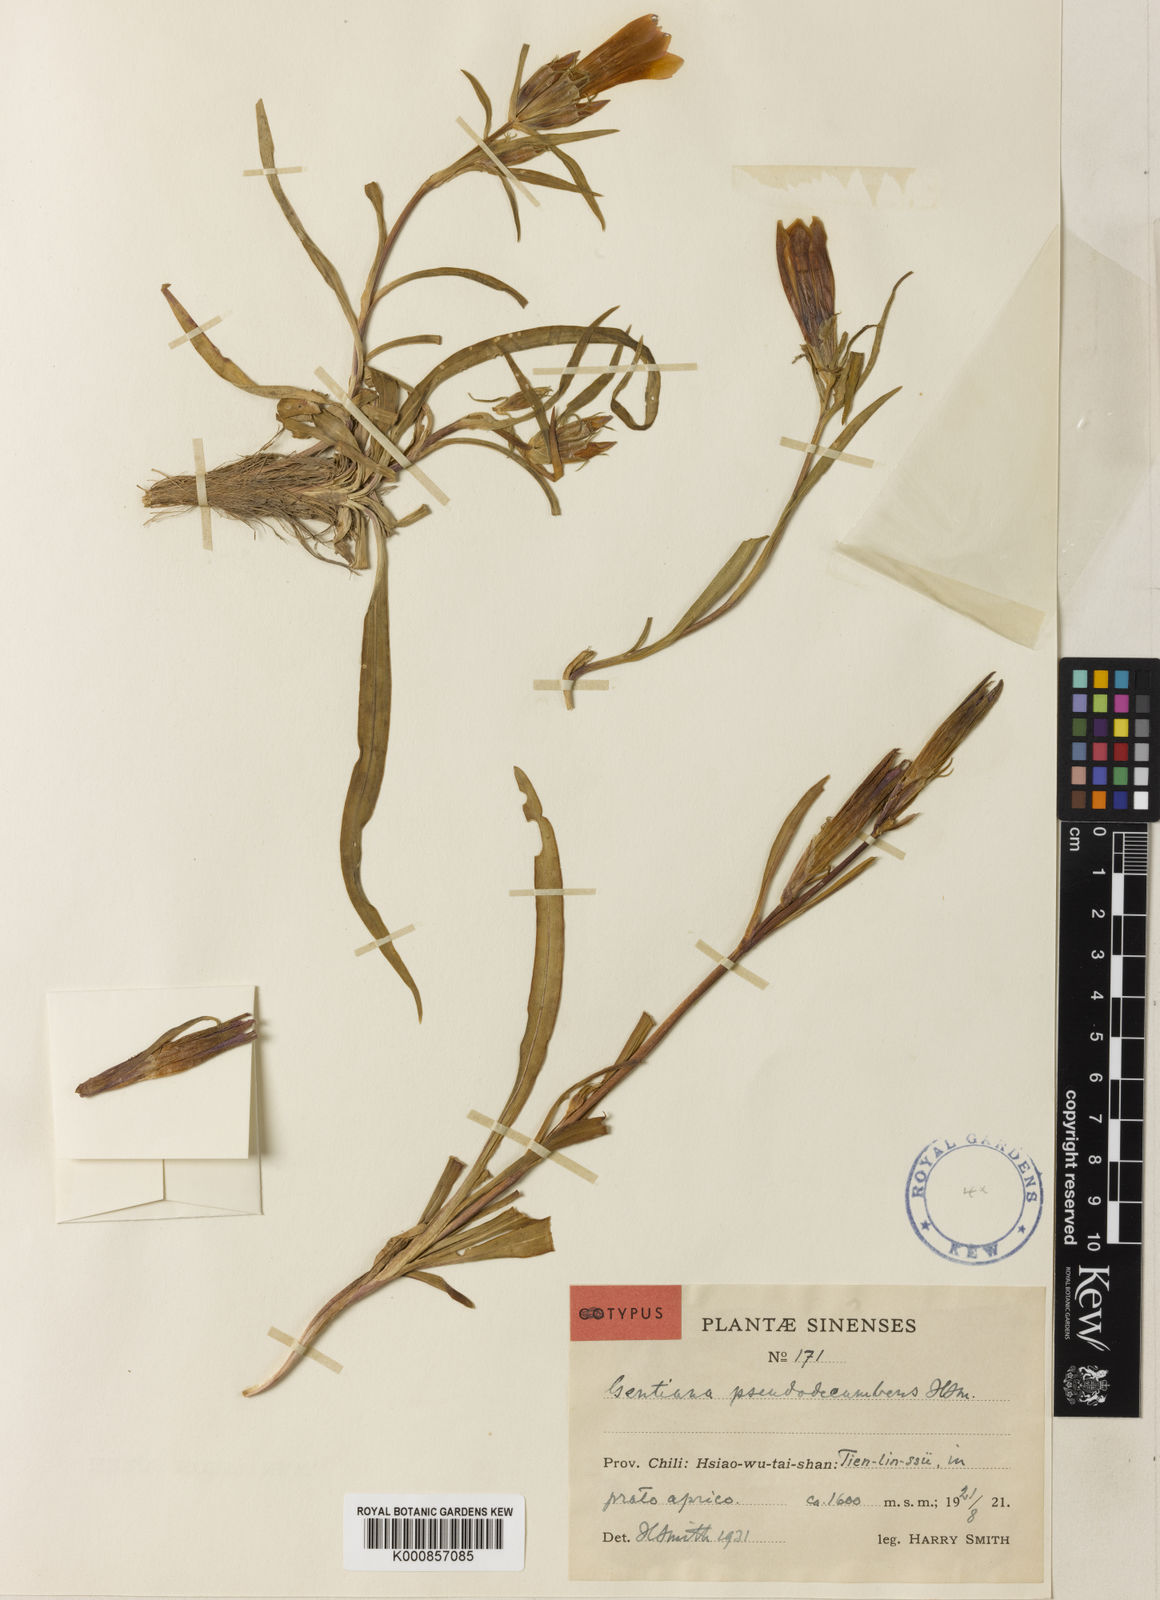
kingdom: Plantae
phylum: Tracheophyta
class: Magnoliopsida
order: Gentianales
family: Gentianaceae
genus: Gentiana
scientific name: Gentiana dahurica
